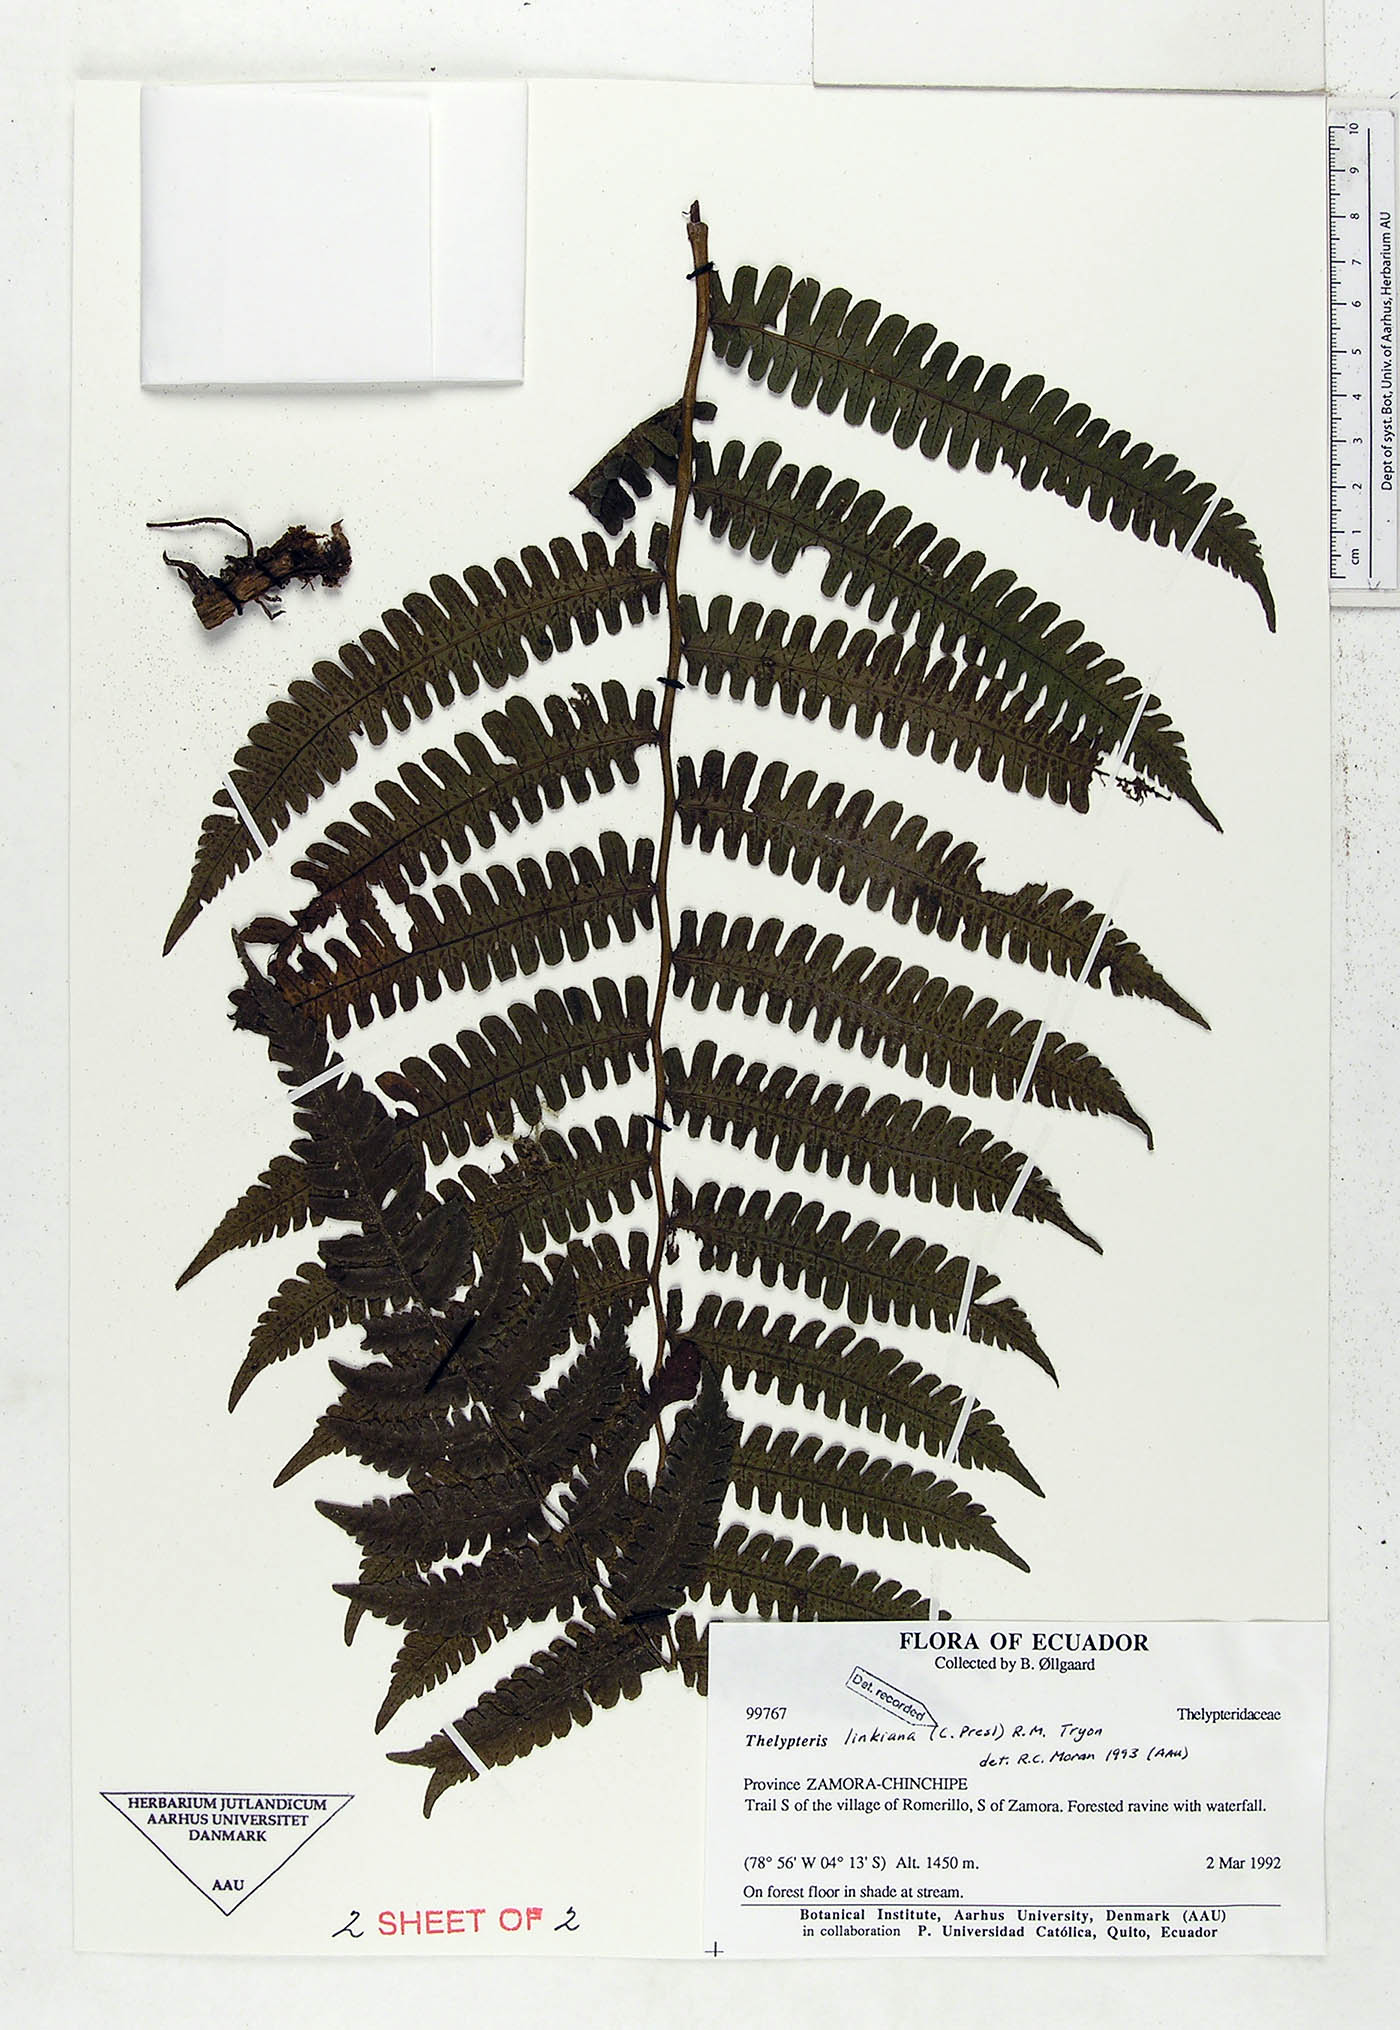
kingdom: Plantae
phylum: Tracheophyta
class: Polypodiopsida
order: Polypodiales
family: Thelypteridaceae
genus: Amauropelta
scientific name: Amauropelta diplazioides
